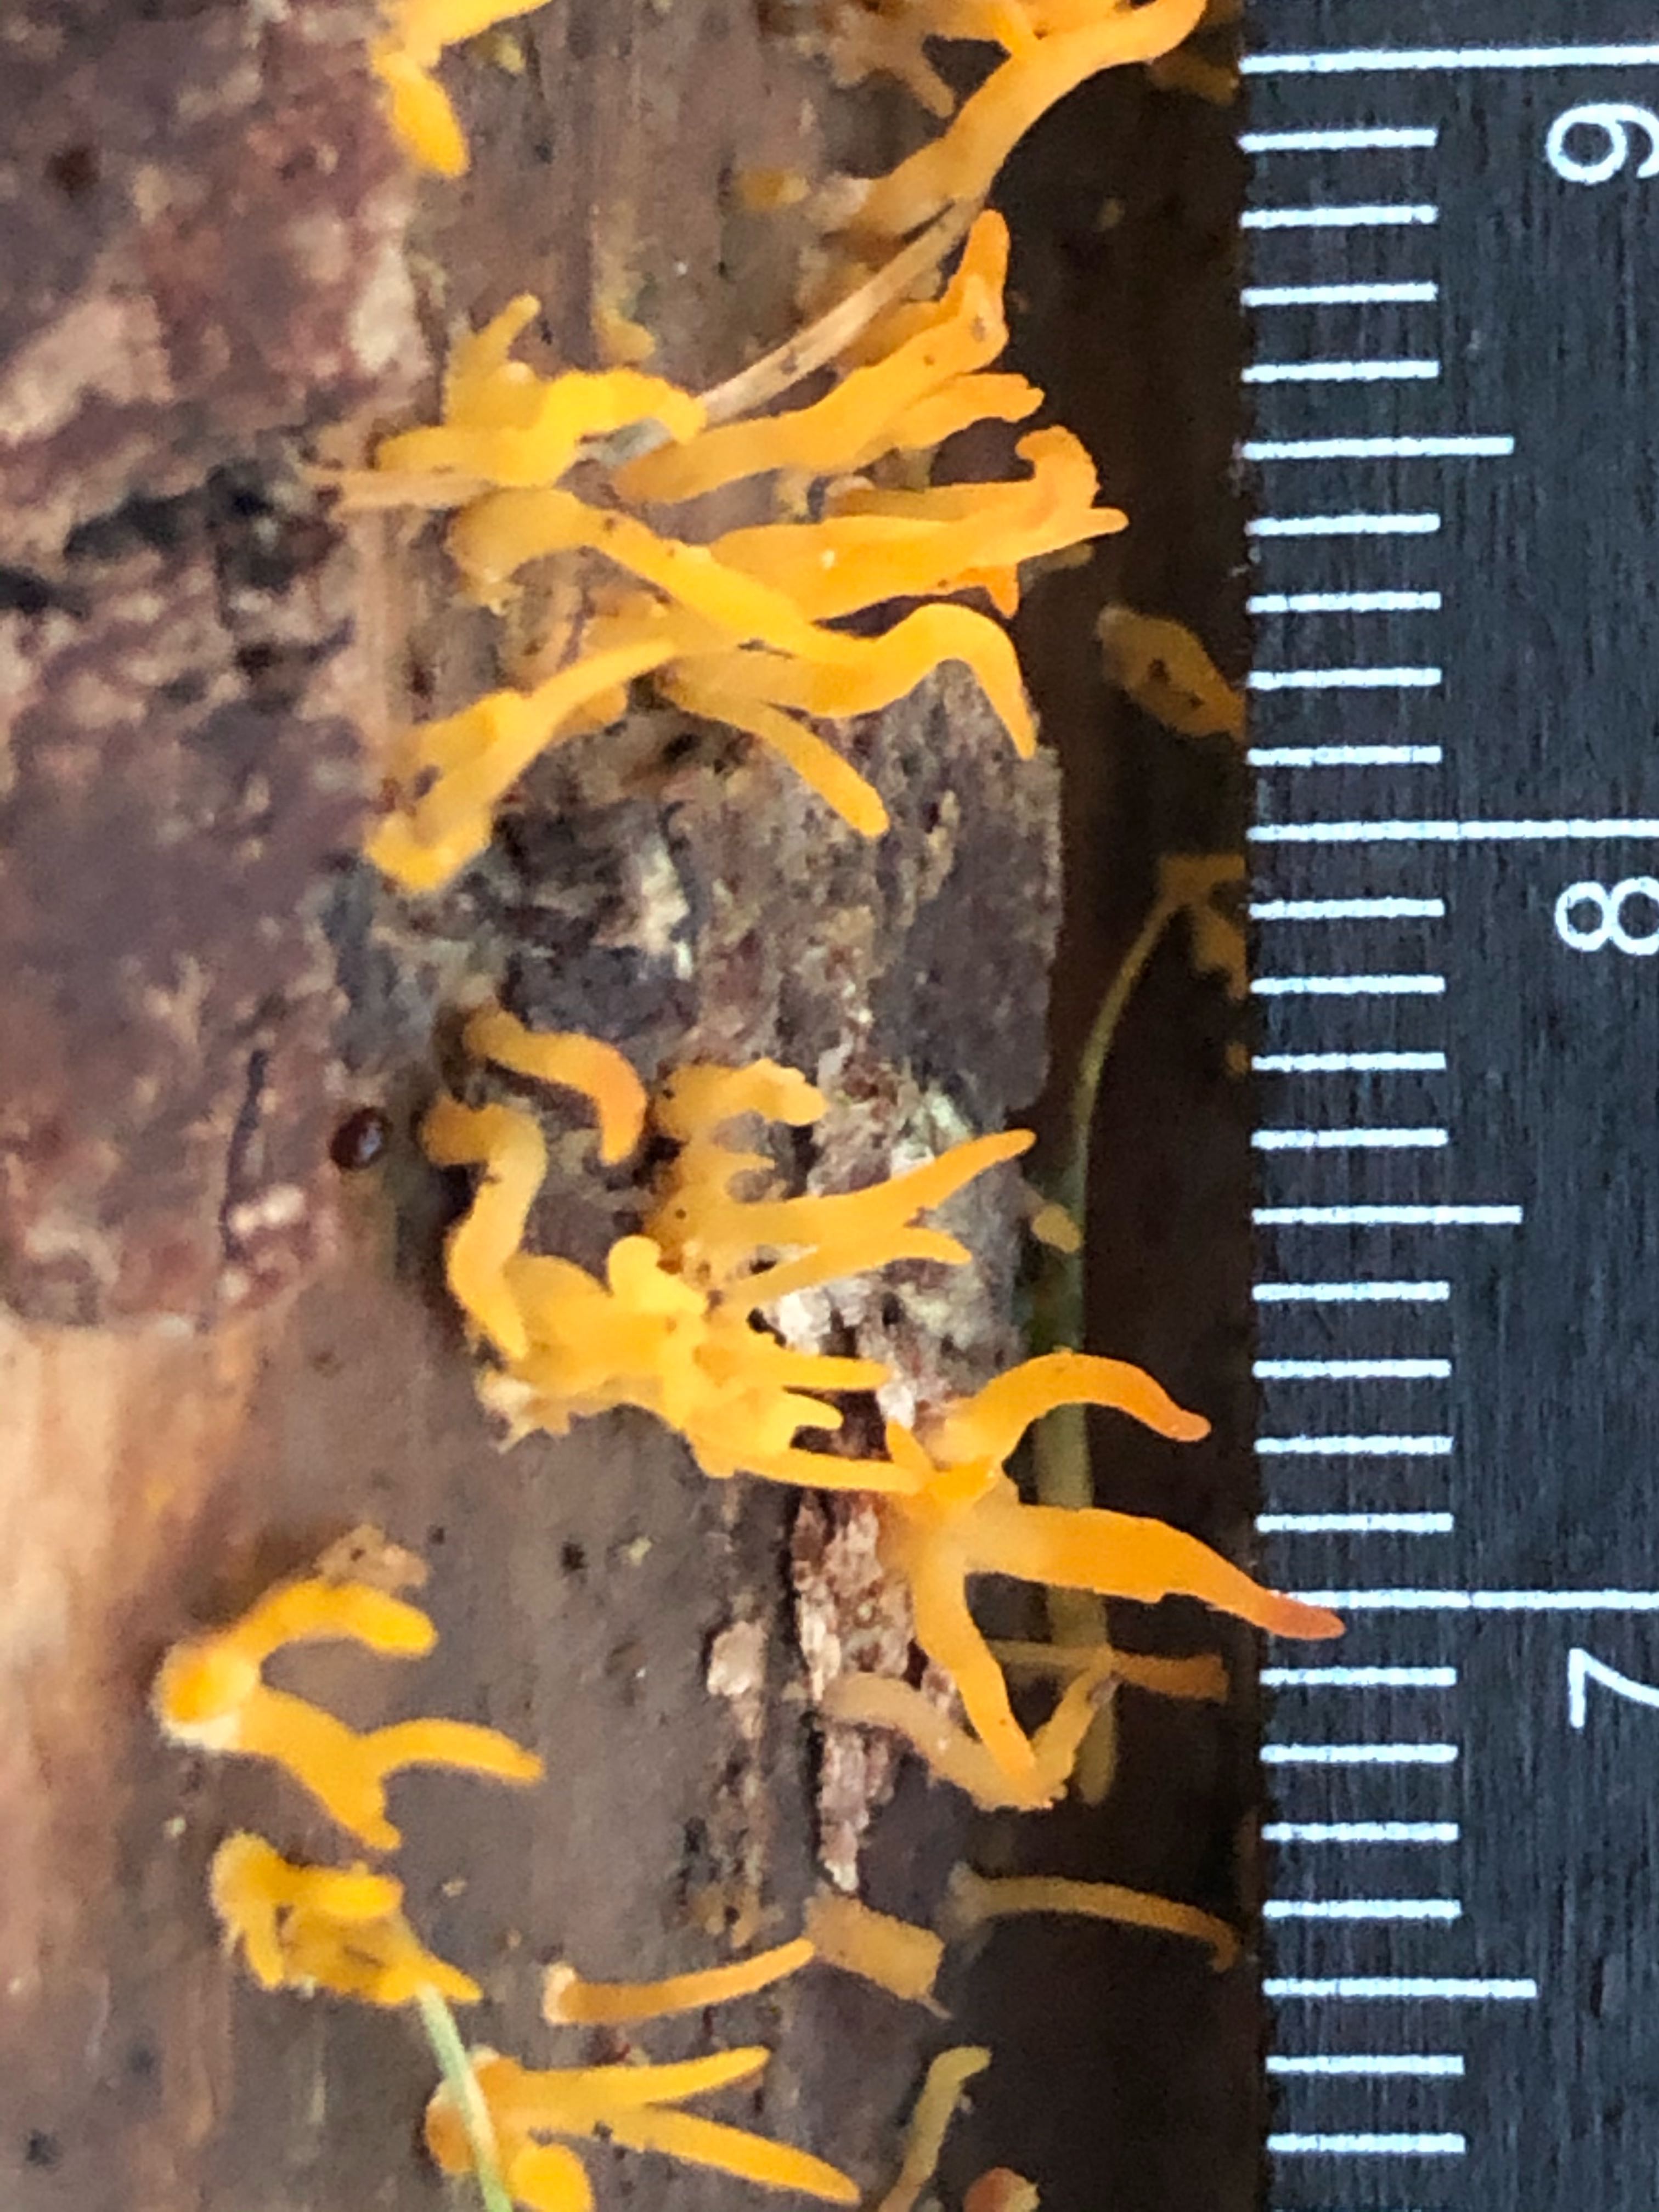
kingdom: Fungi
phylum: Basidiomycota
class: Dacrymycetes
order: Dacrymycetales
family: Dacrymycetaceae
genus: Calocera
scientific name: Calocera cornea
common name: liden guldgaffel
